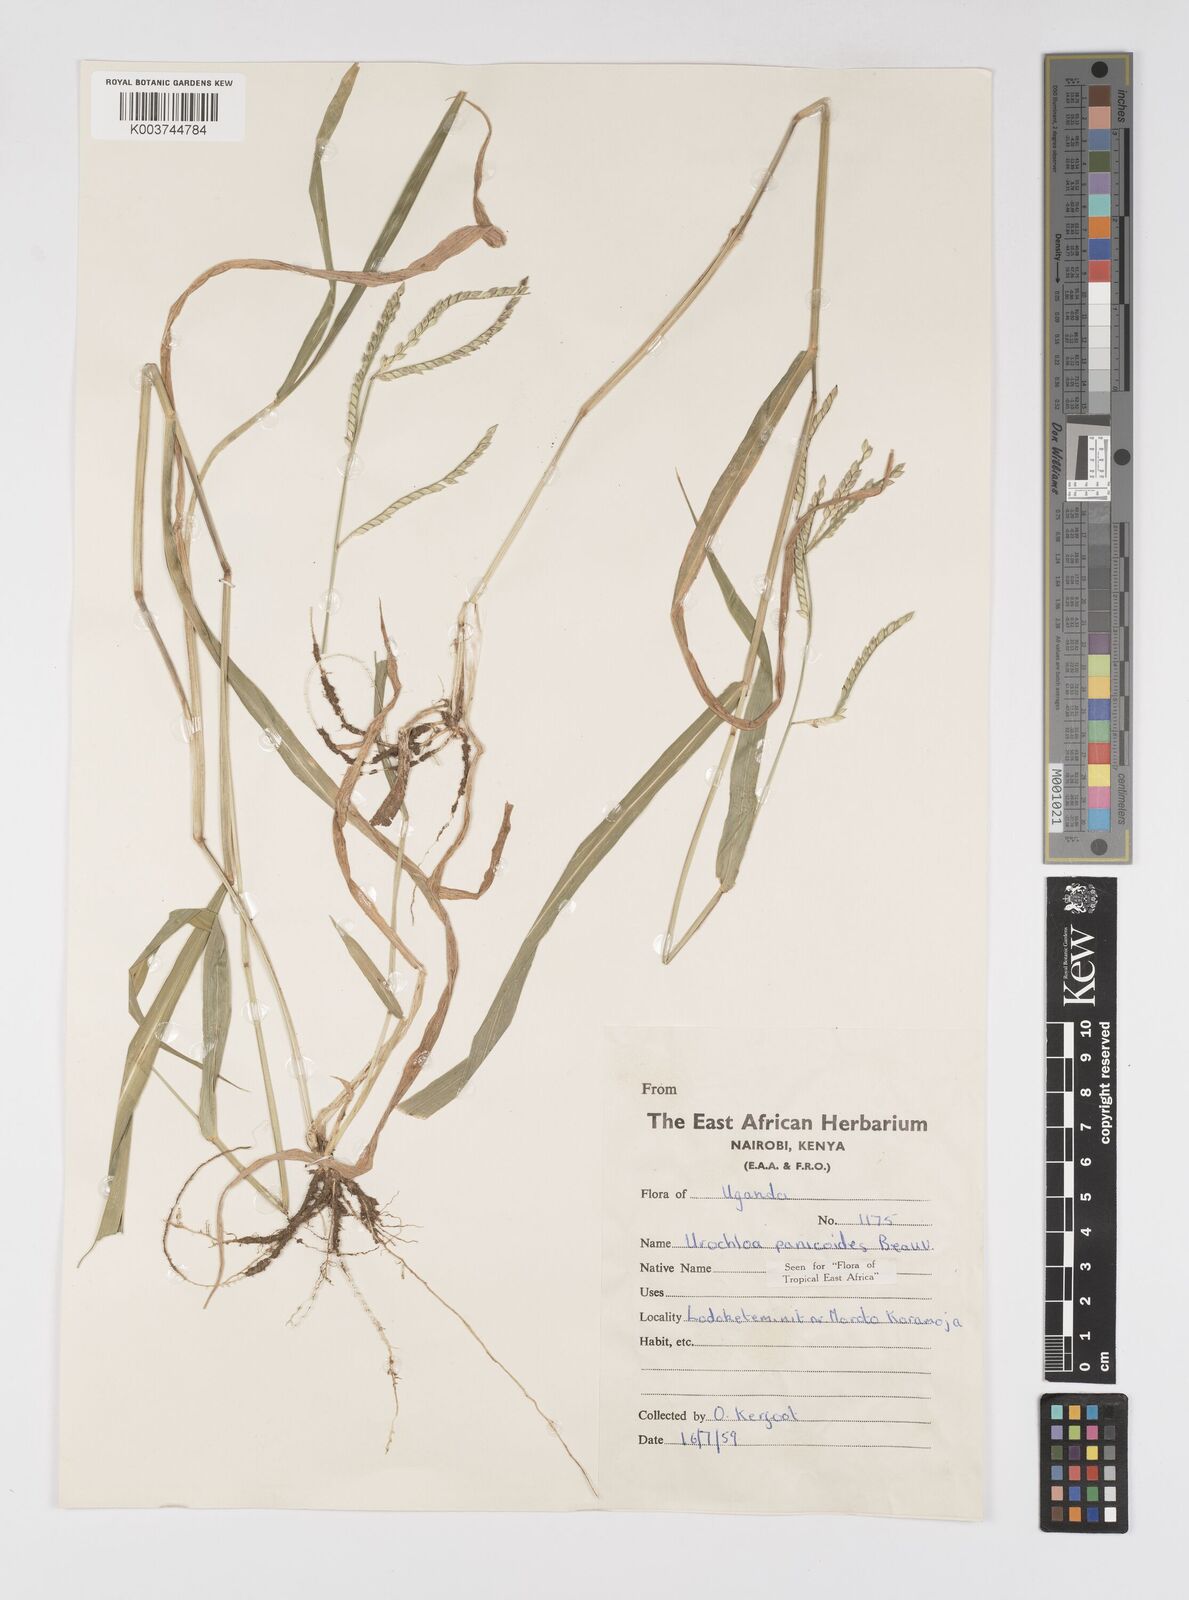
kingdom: Plantae
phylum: Tracheophyta
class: Liliopsida
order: Poales
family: Poaceae
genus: Urochloa
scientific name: Urochloa panicoides
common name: Sharp-flowered signal-grass
